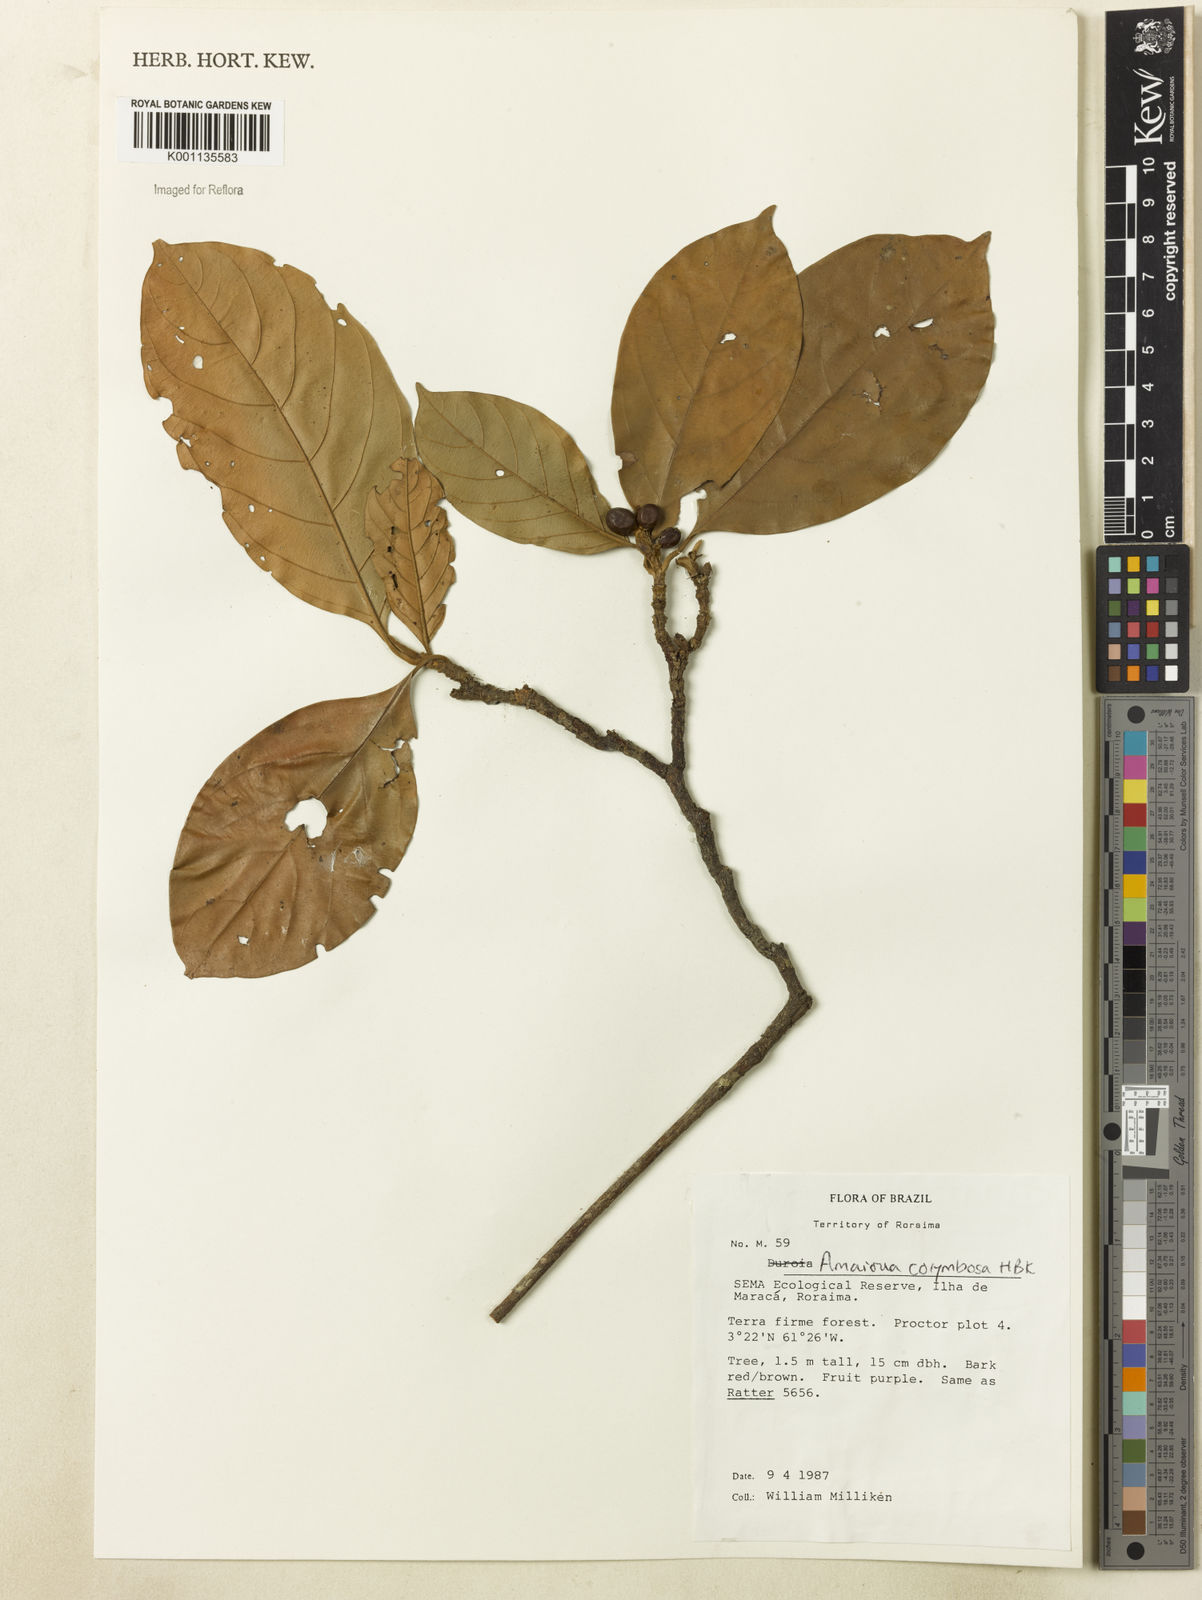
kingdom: Plantae
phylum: Tracheophyta
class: Magnoliopsida
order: Gentianales
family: Rubiaceae
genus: Amaioua
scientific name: Amaioua glomerulata
